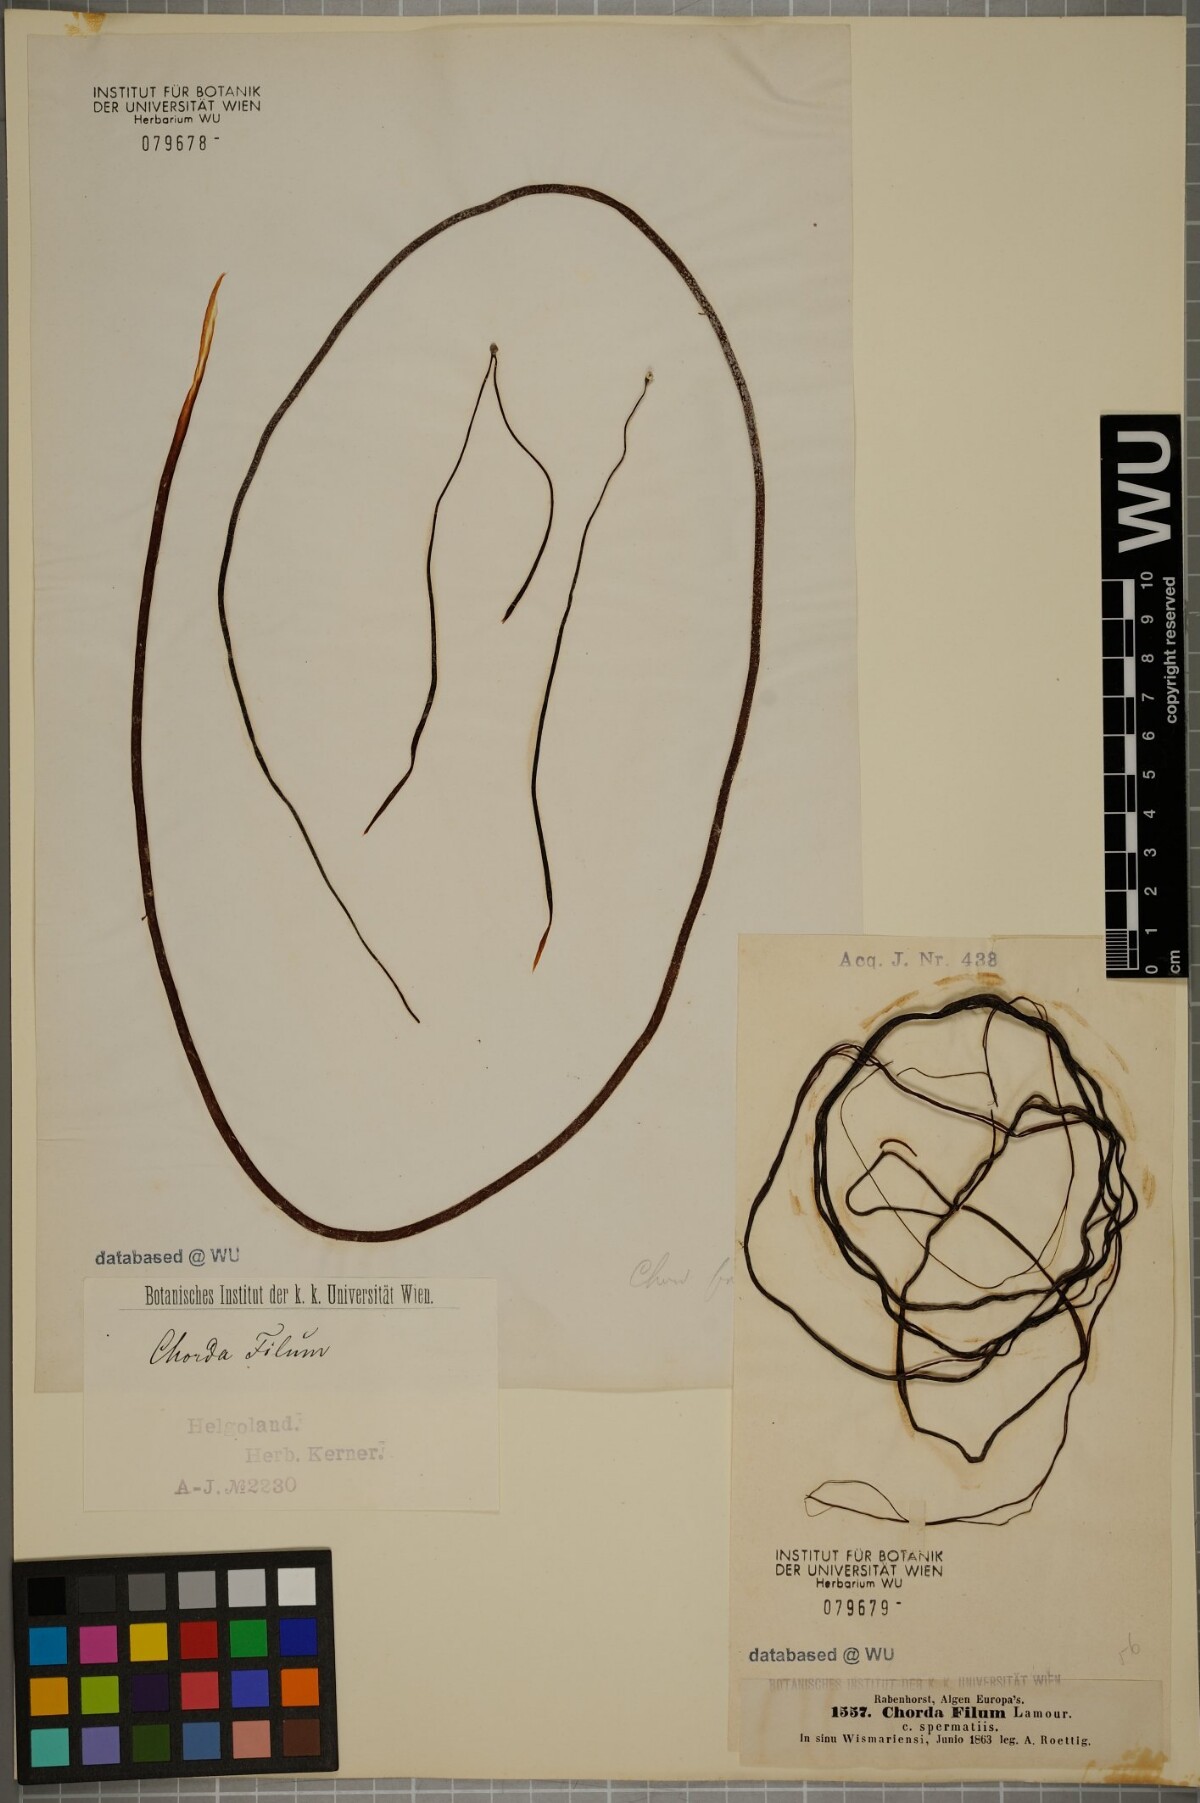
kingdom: Chromista
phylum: Ochrophyta
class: Phaeophyceae
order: Laminariales
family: Chordaceae
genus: Chorda
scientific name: Chorda filum
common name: Mermaid's tresses
